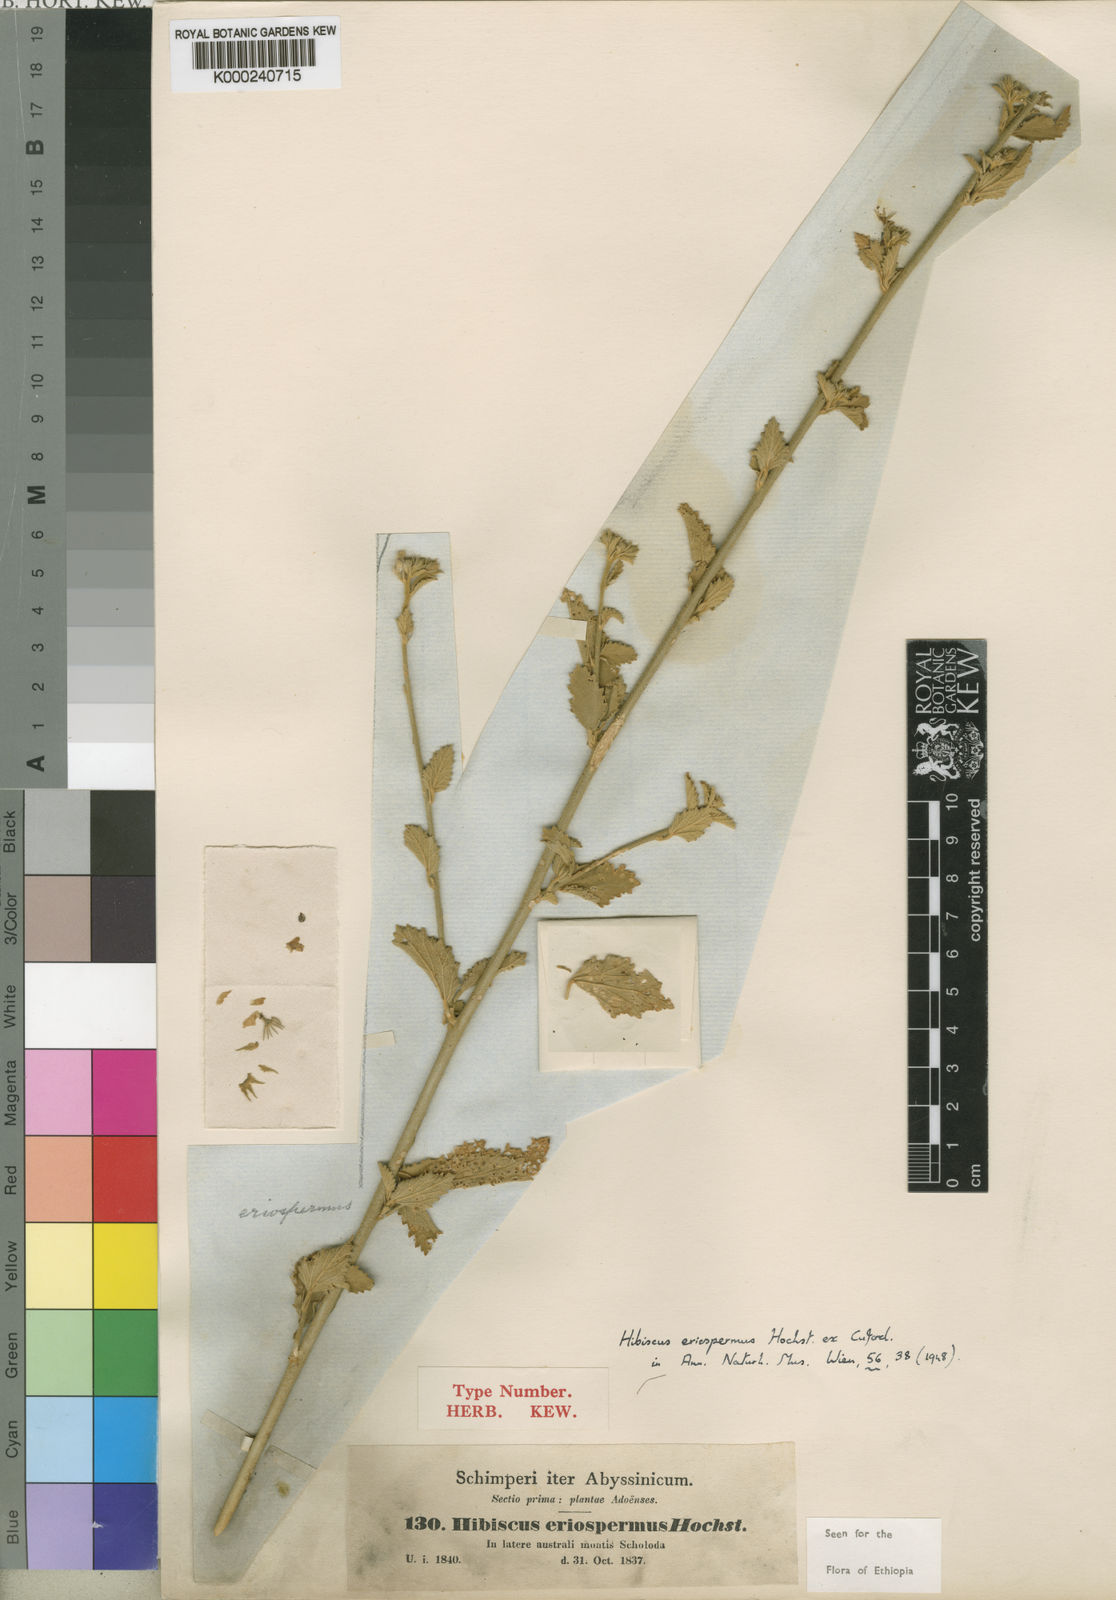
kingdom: Plantae
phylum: Tracheophyta
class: Magnoliopsida
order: Malvales
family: Malvaceae
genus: Hibiscus
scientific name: Hibiscus eriospermus
